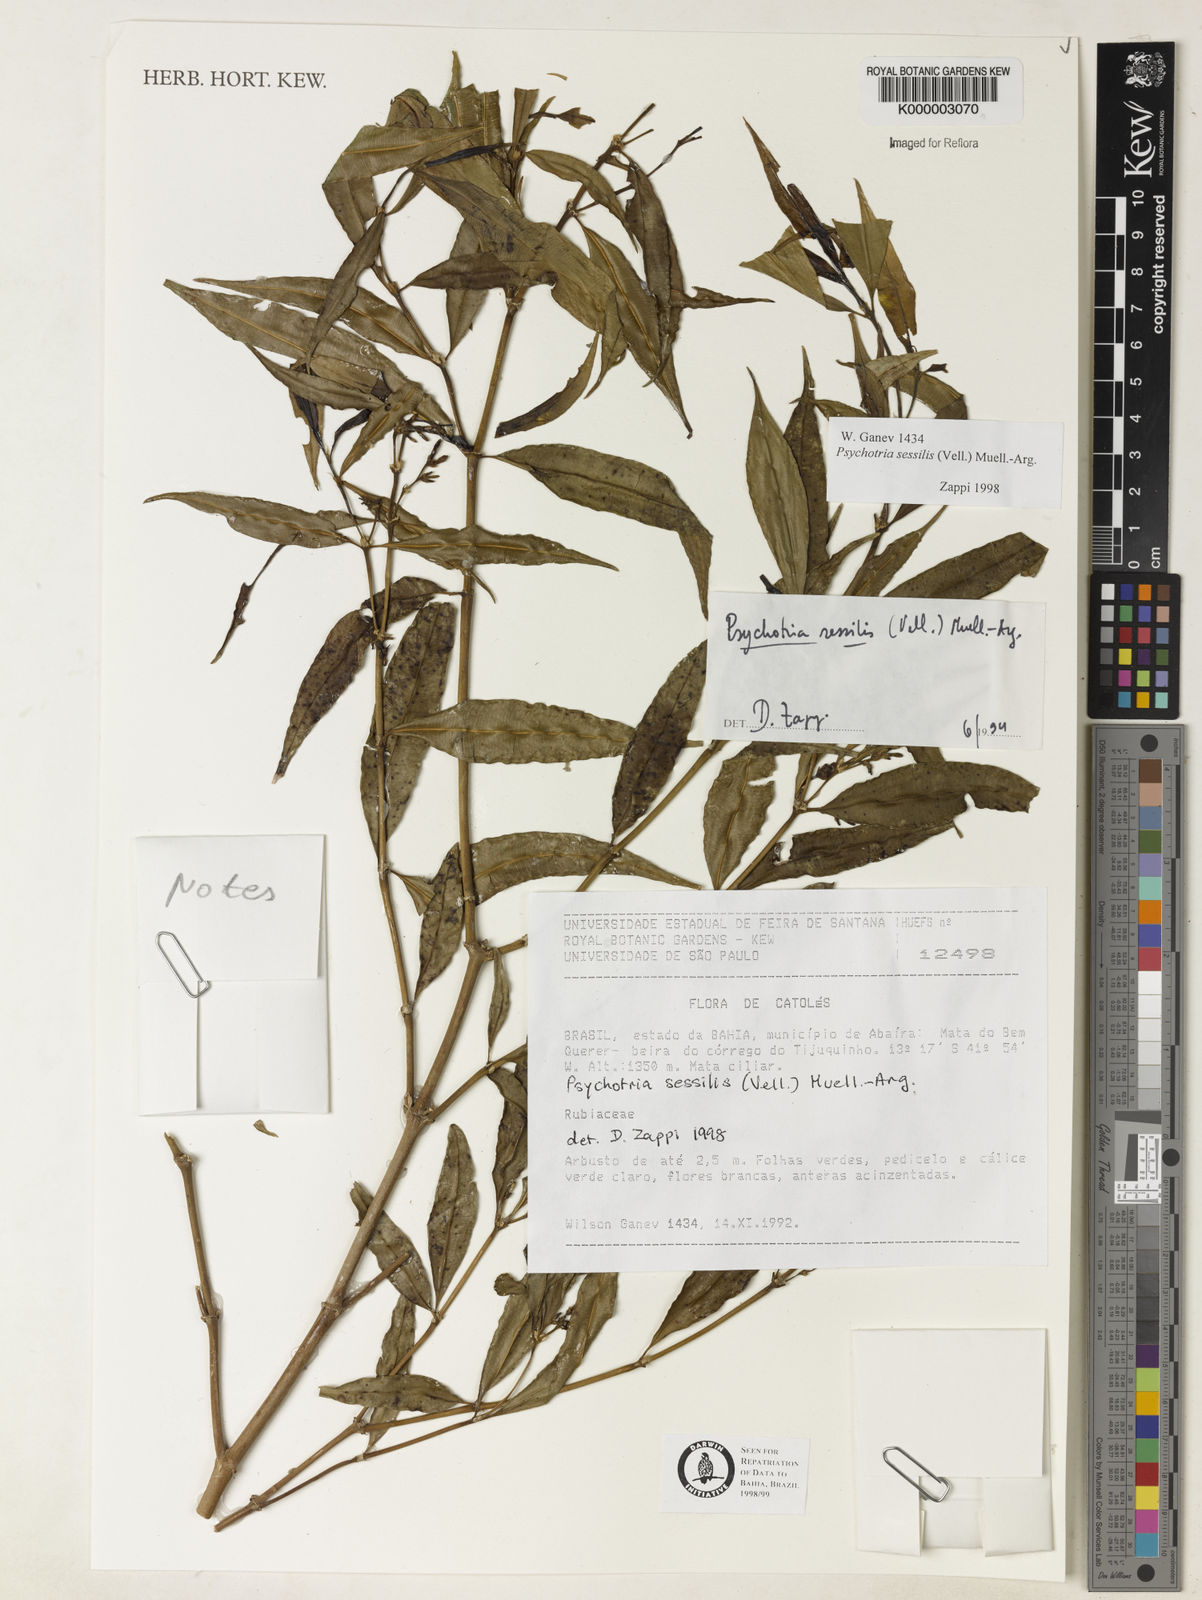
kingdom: Plantae
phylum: Tracheophyta
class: Magnoliopsida
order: Gentianales
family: Rubiaceae
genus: Psychotria
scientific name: Psychotria
